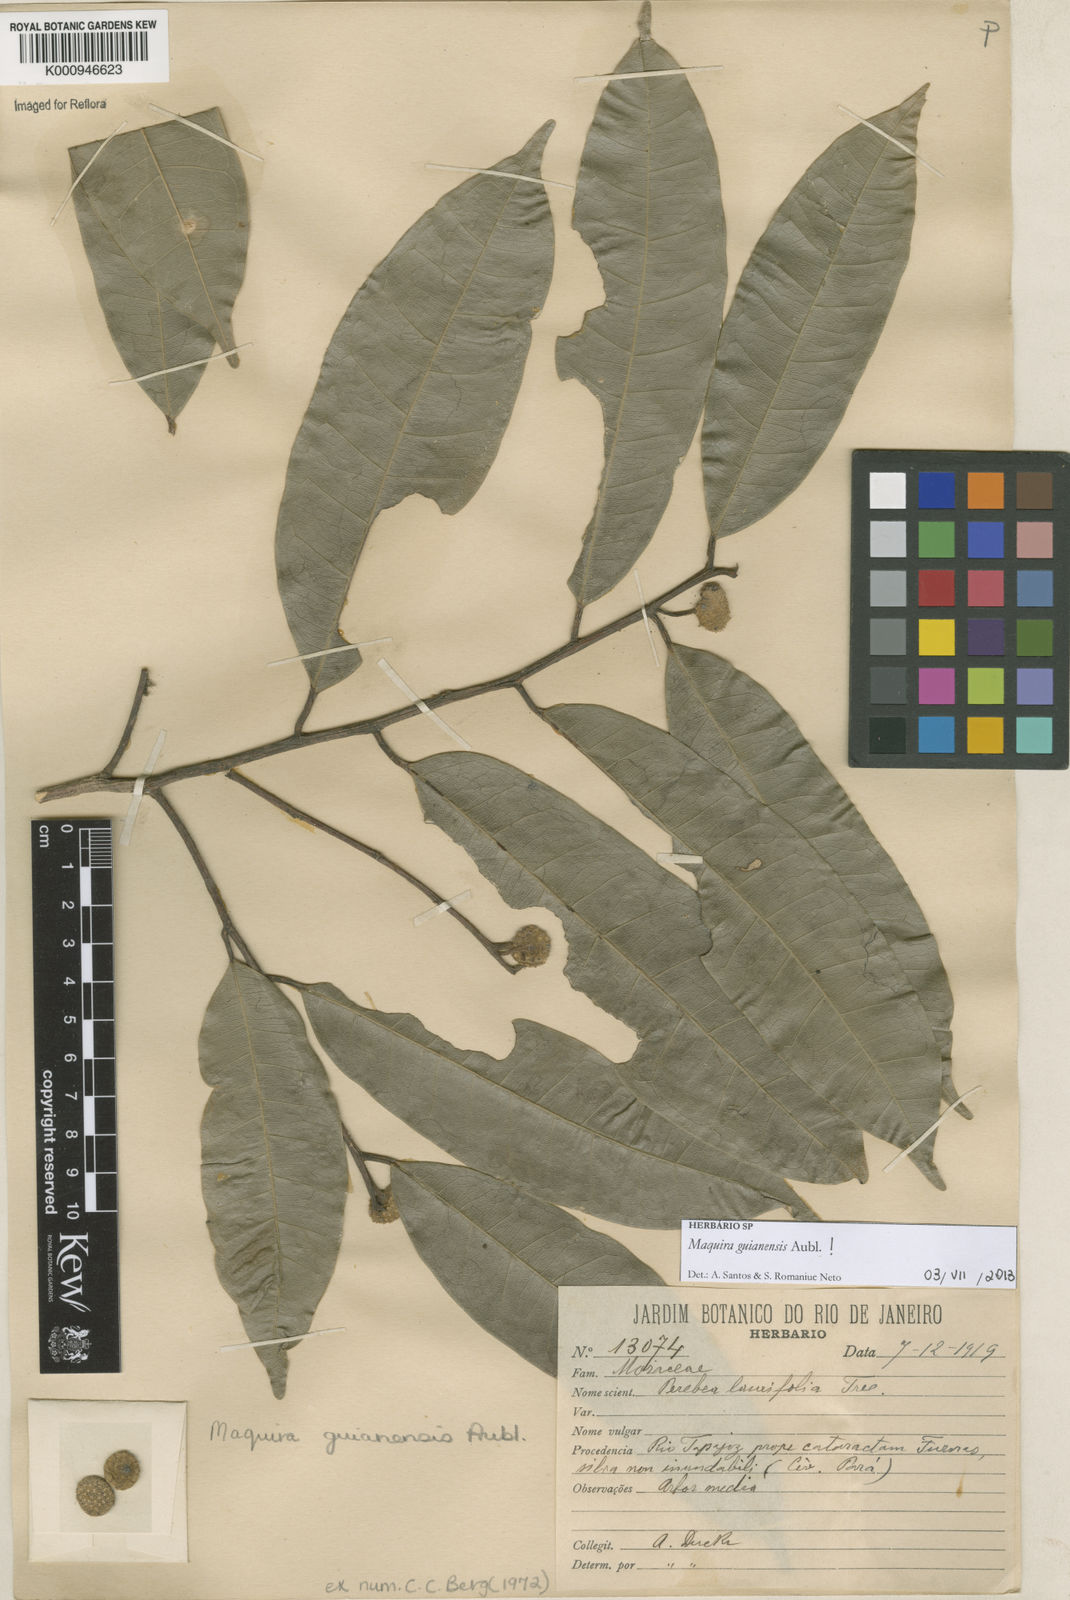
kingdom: Plantae
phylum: Tracheophyta
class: Magnoliopsida
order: Rosales
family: Moraceae
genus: Maquira
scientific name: Maquira guianensis
